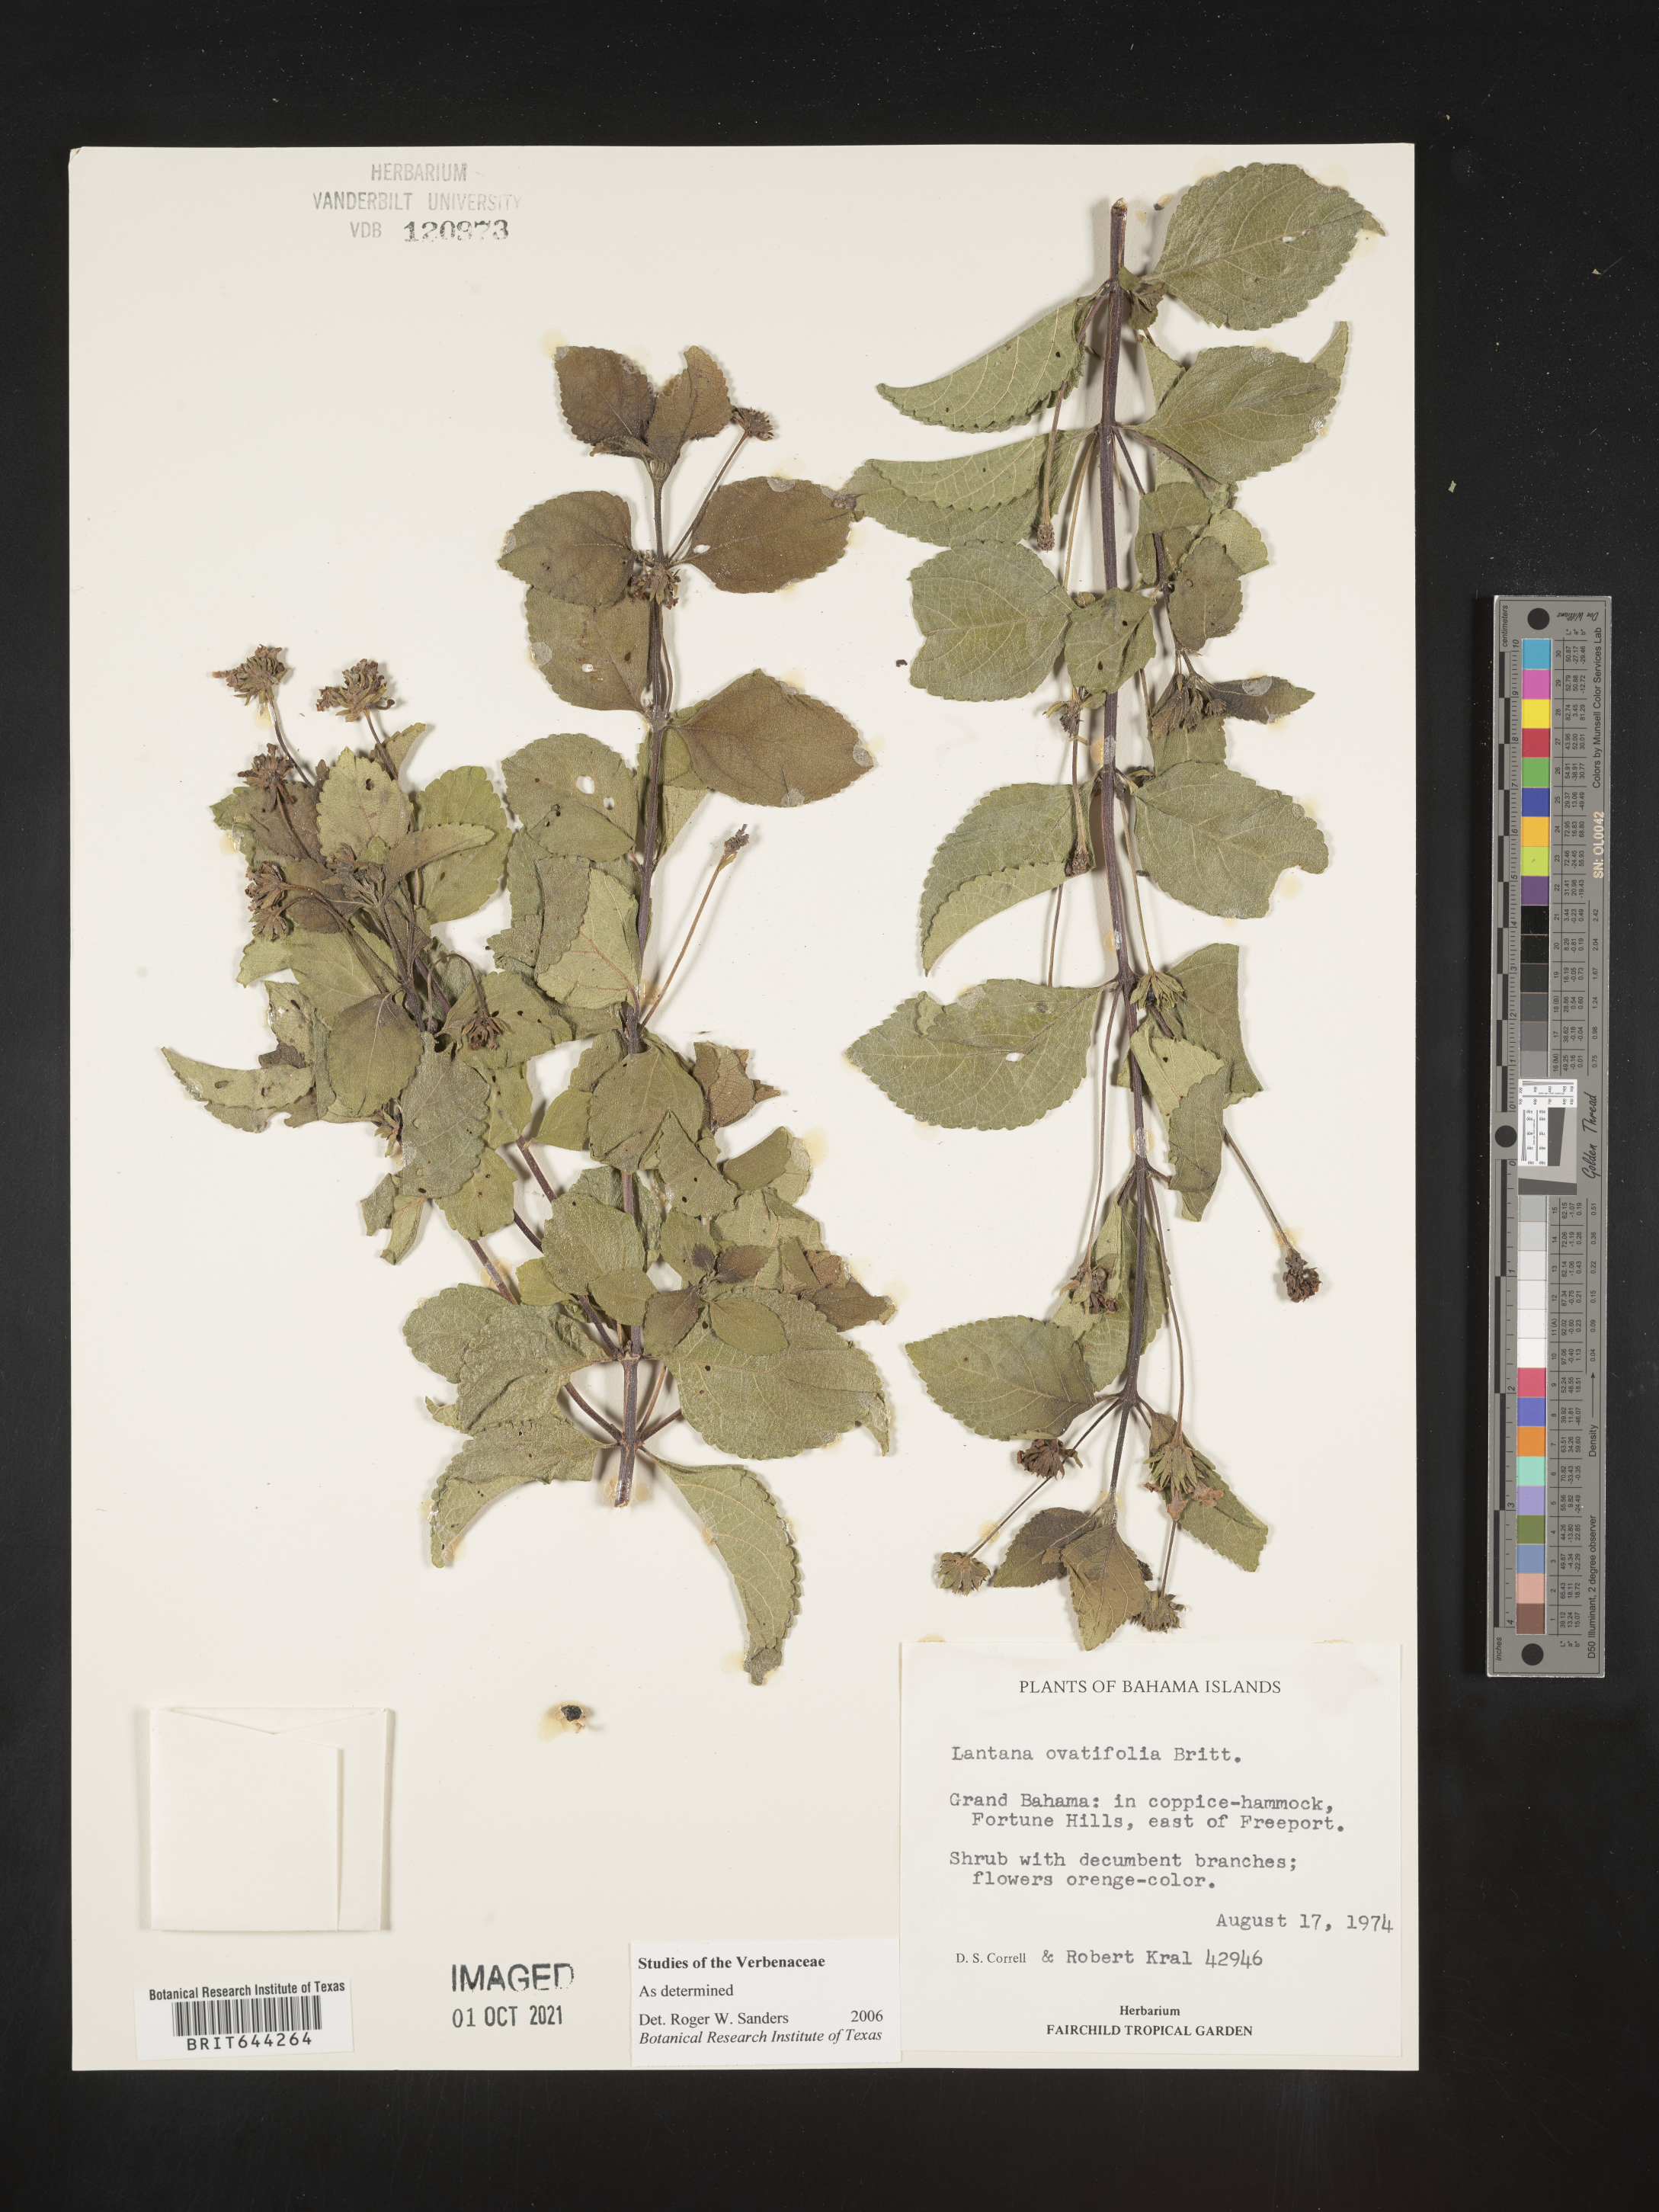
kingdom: Plantae
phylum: Tracheophyta
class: Magnoliopsida
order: Lamiales
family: Verbenaceae
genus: Lantana
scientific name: Lantana
